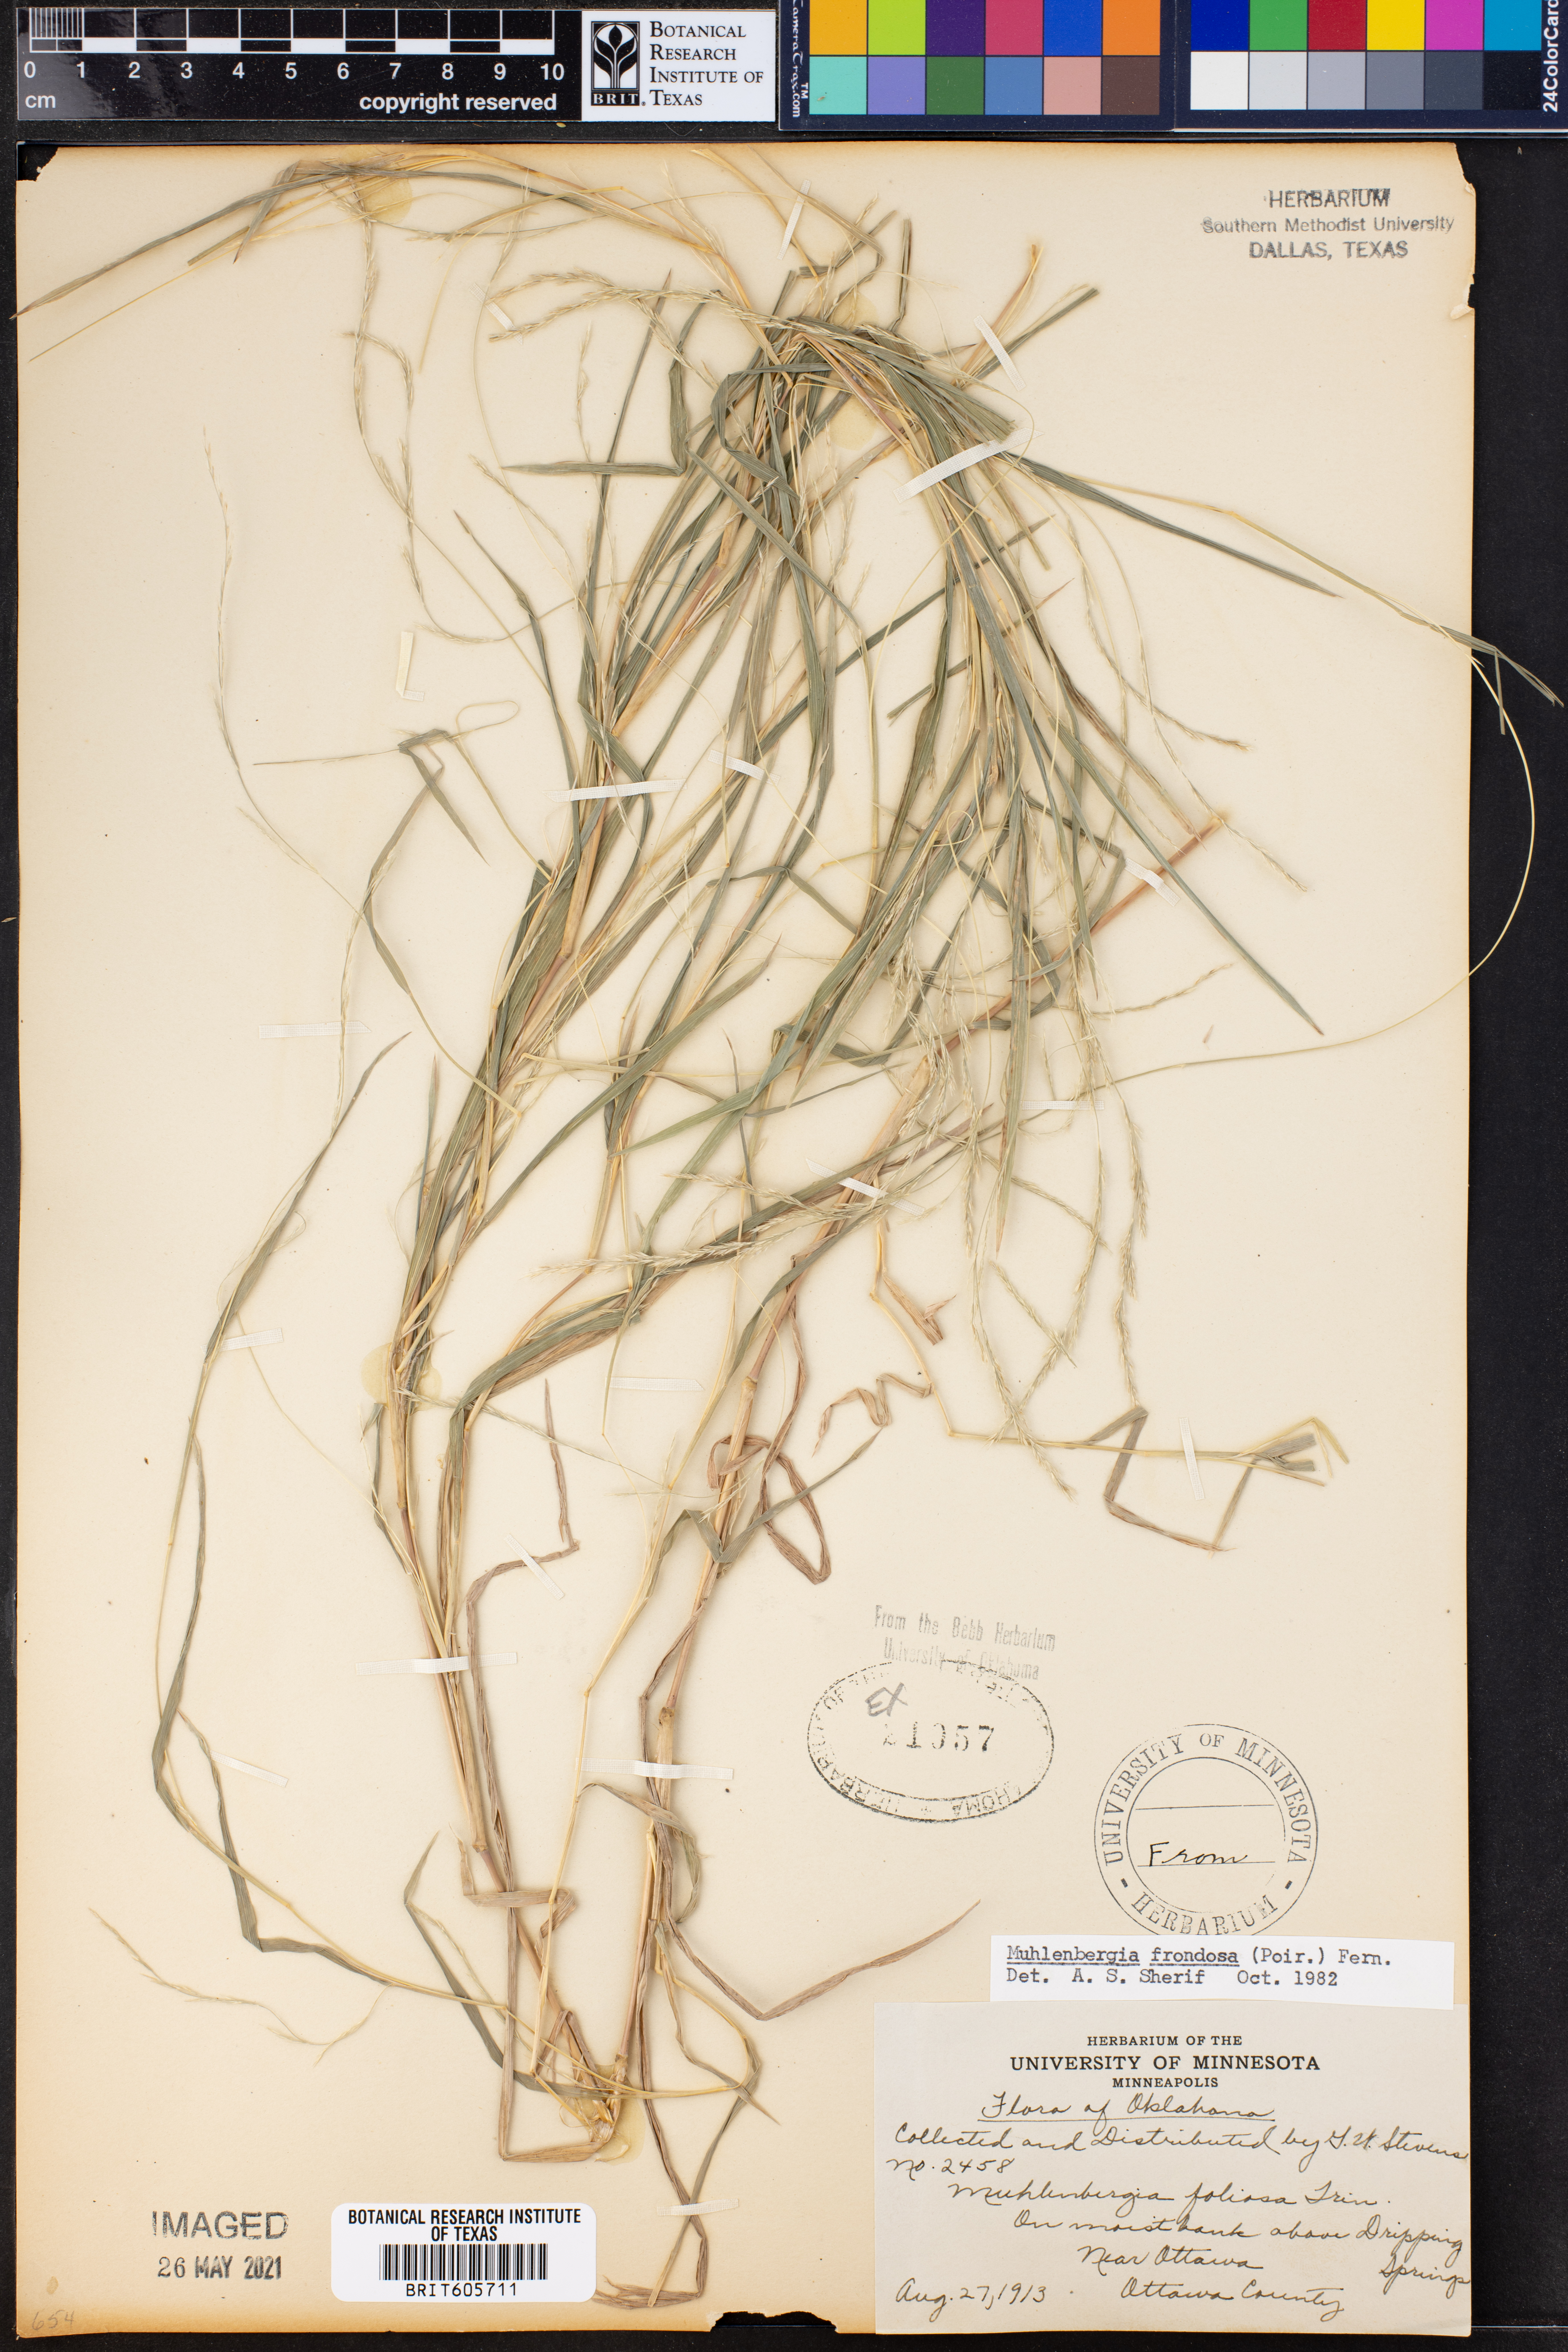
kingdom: Plantae
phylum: Tracheophyta
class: Liliopsida
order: Poales
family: Poaceae
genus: Muhlenbergia
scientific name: Muhlenbergia frondosa
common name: Common satingrass
